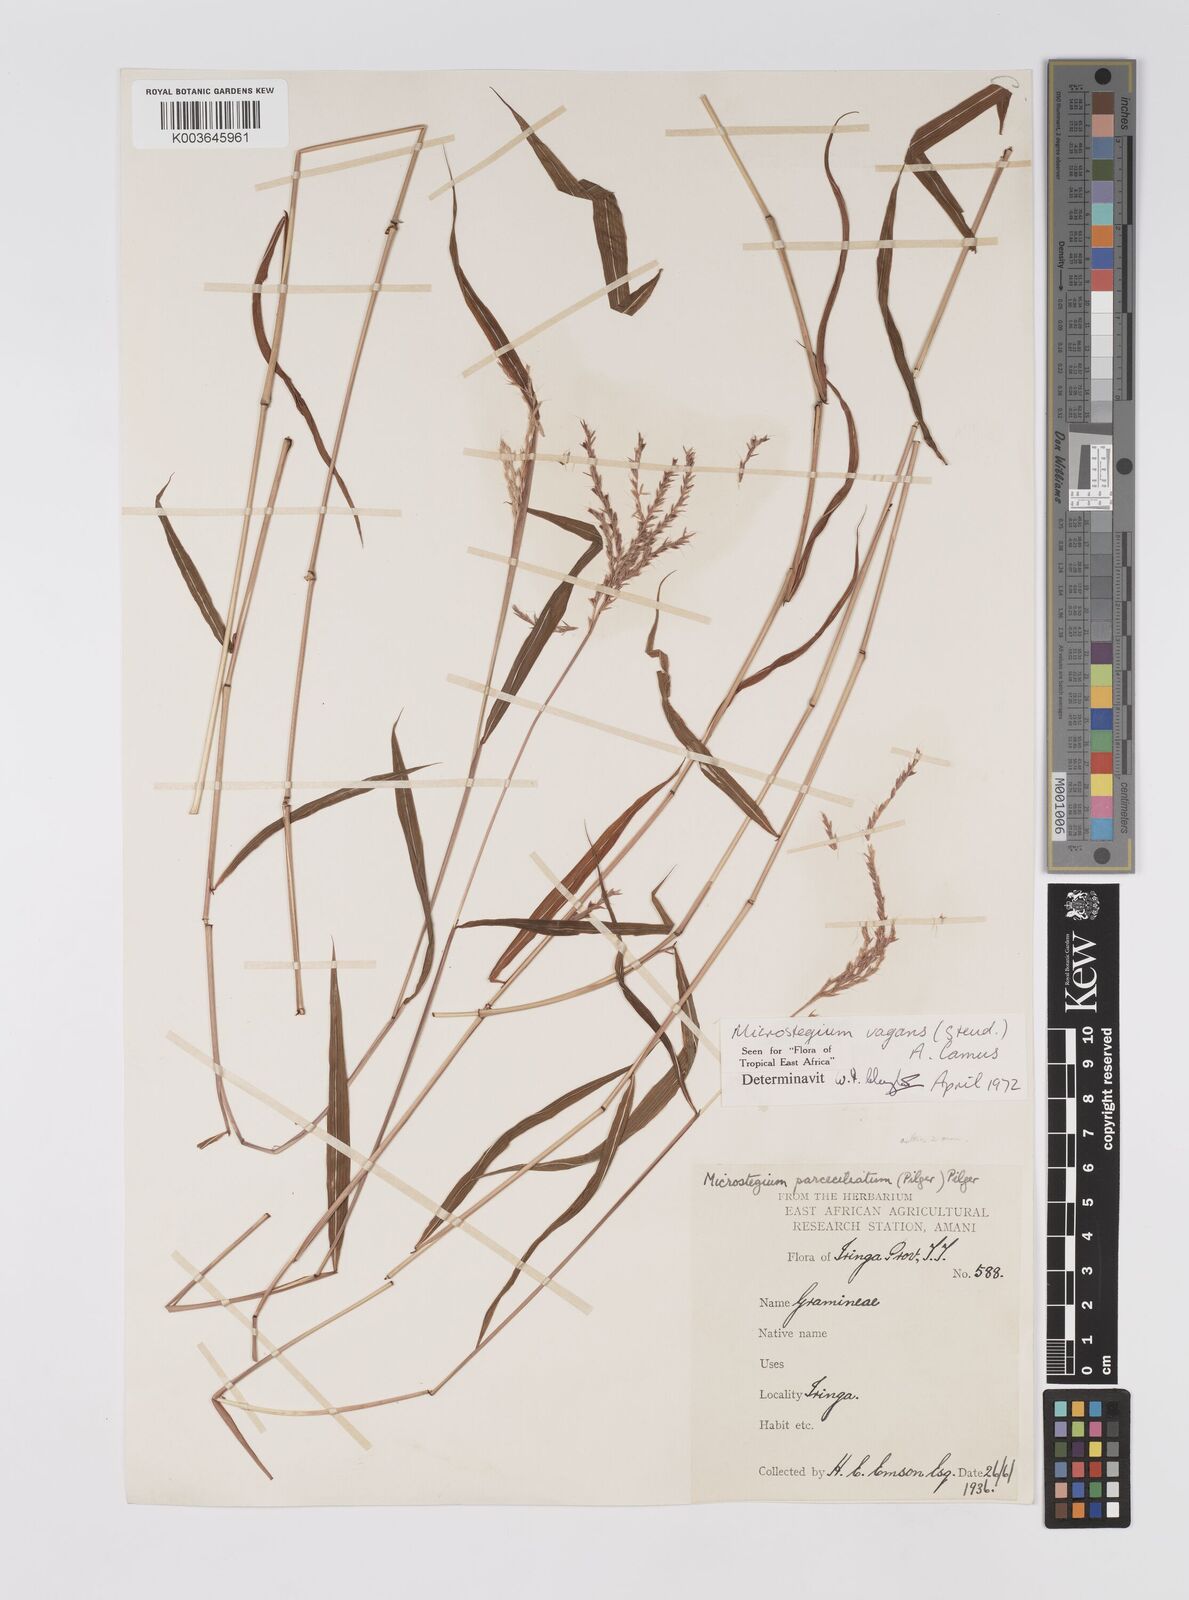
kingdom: Plantae
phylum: Tracheophyta
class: Liliopsida
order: Poales
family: Poaceae
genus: Microstegium
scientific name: Microstegium fasciculatum
